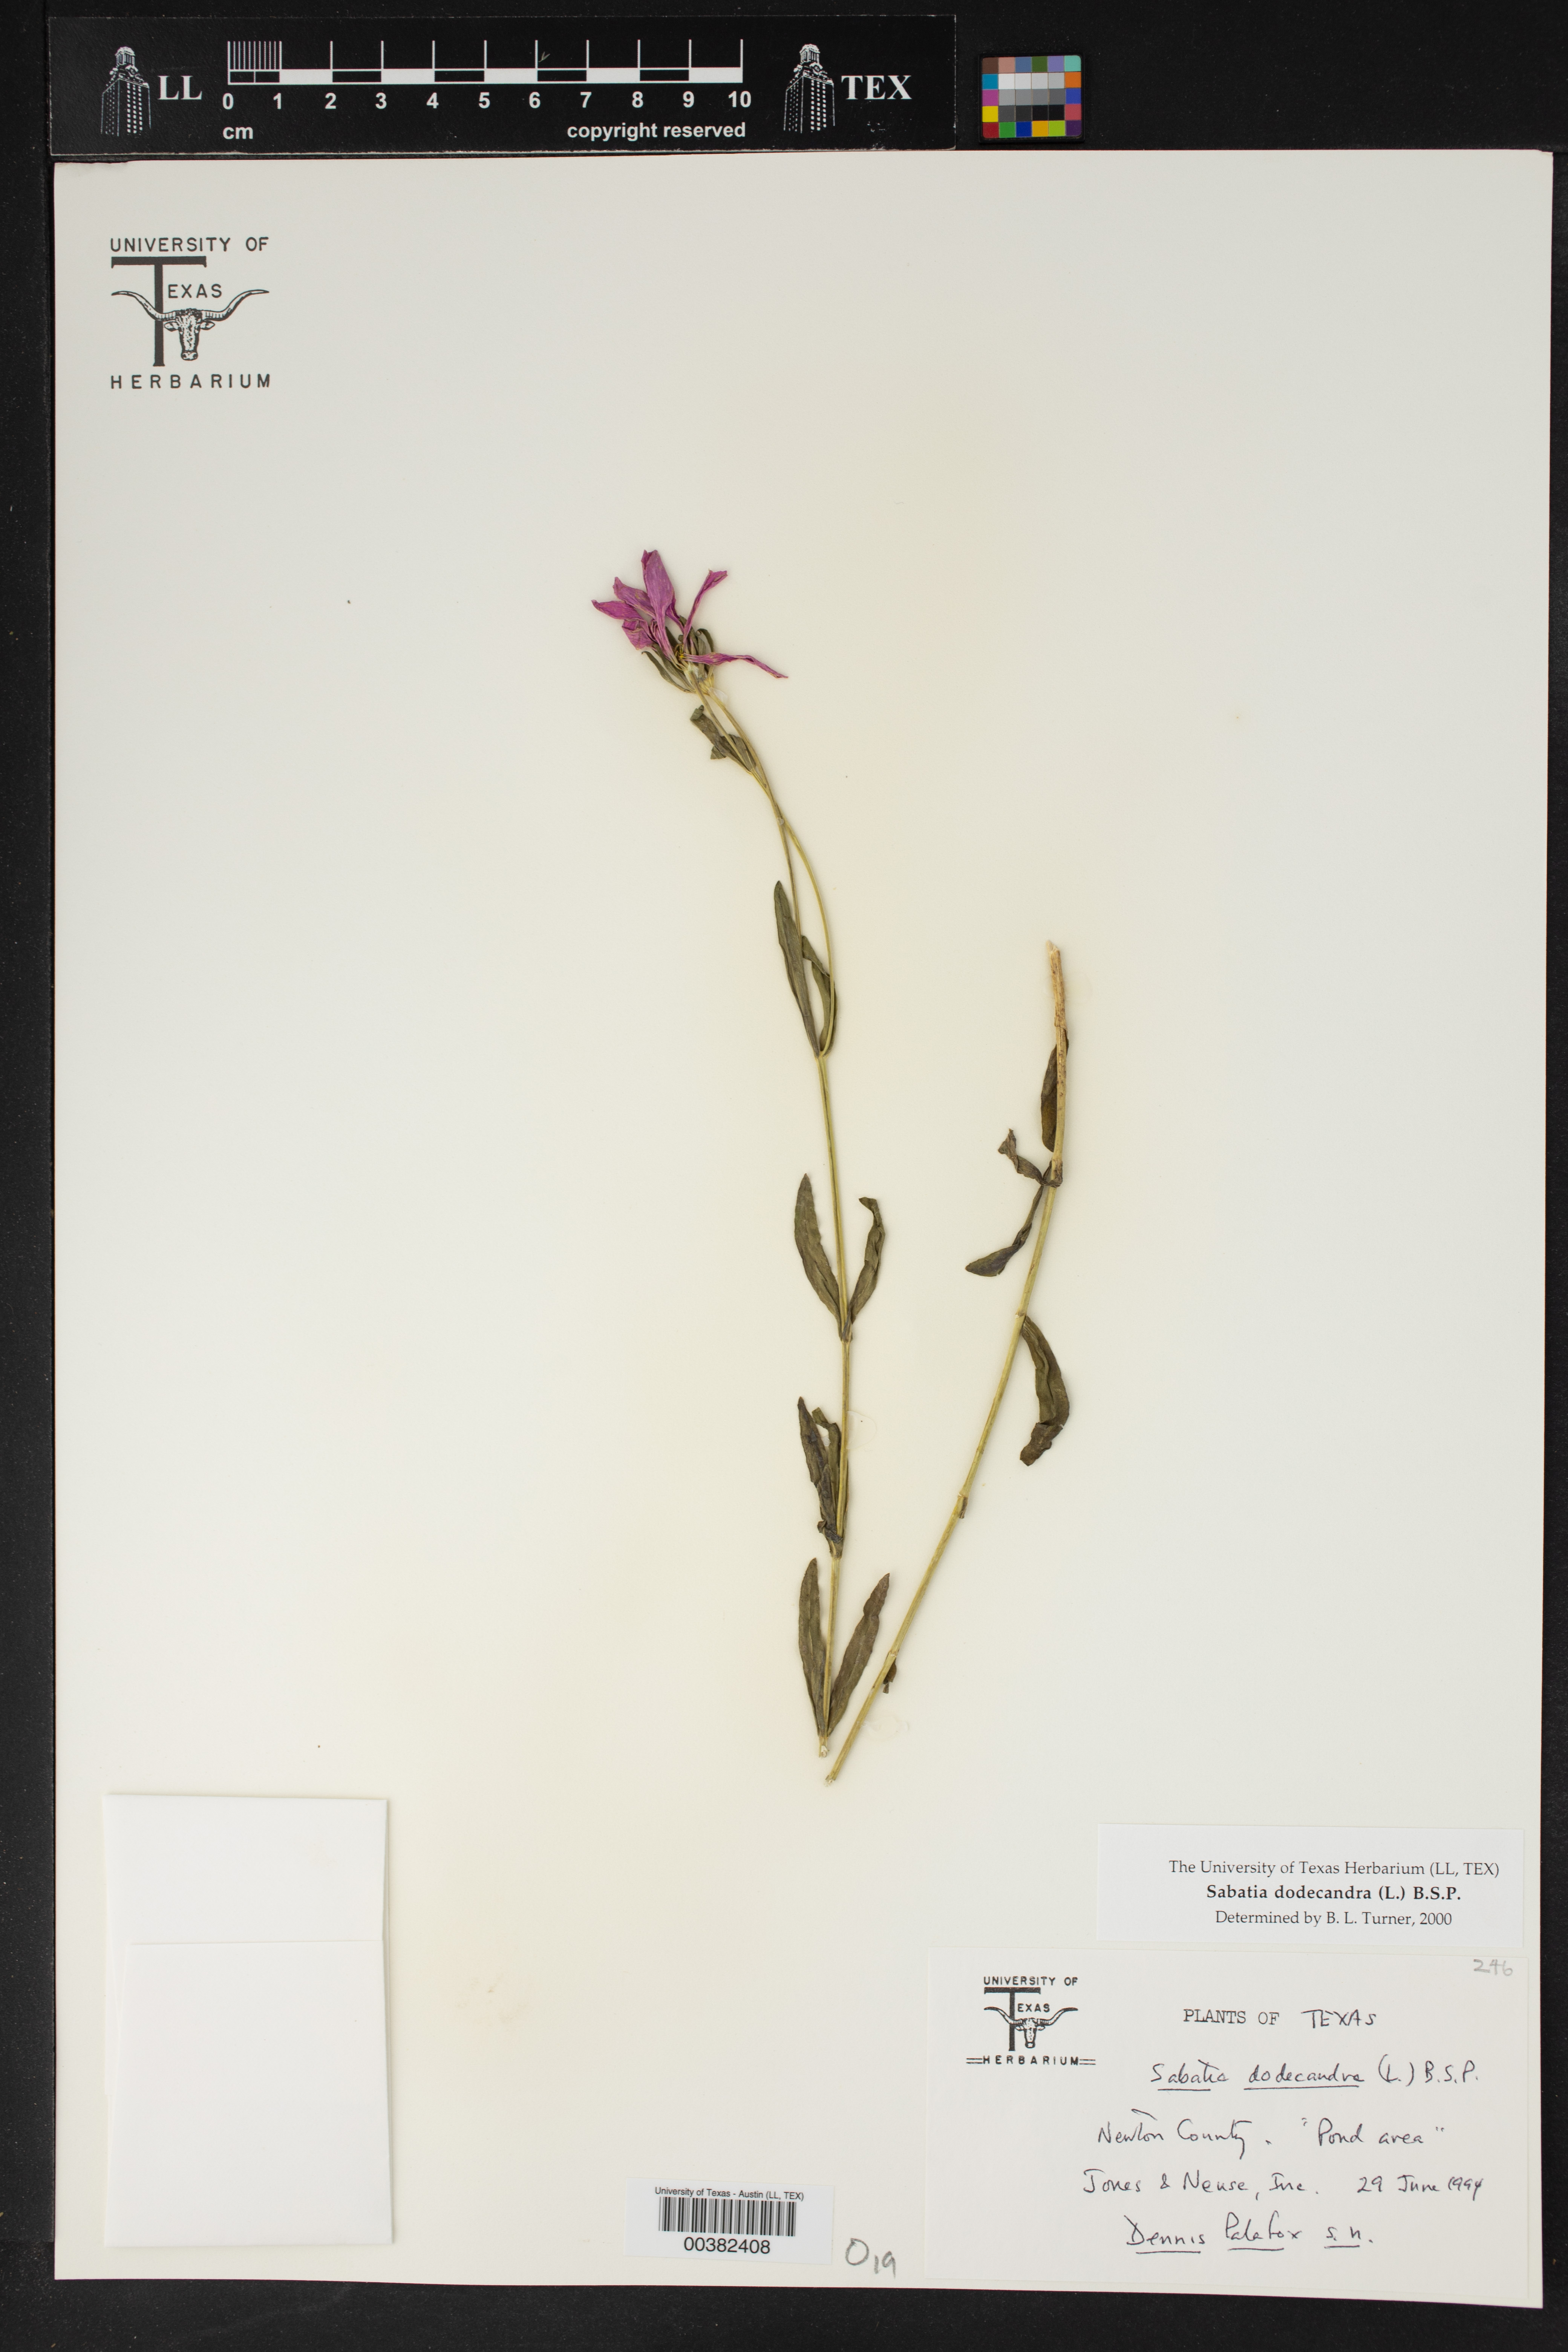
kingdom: Plantae
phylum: Tracheophyta
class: Magnoliopsida
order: Gentianales
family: Gentianaceae
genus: Sabatia
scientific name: Sabatia dodecandra
